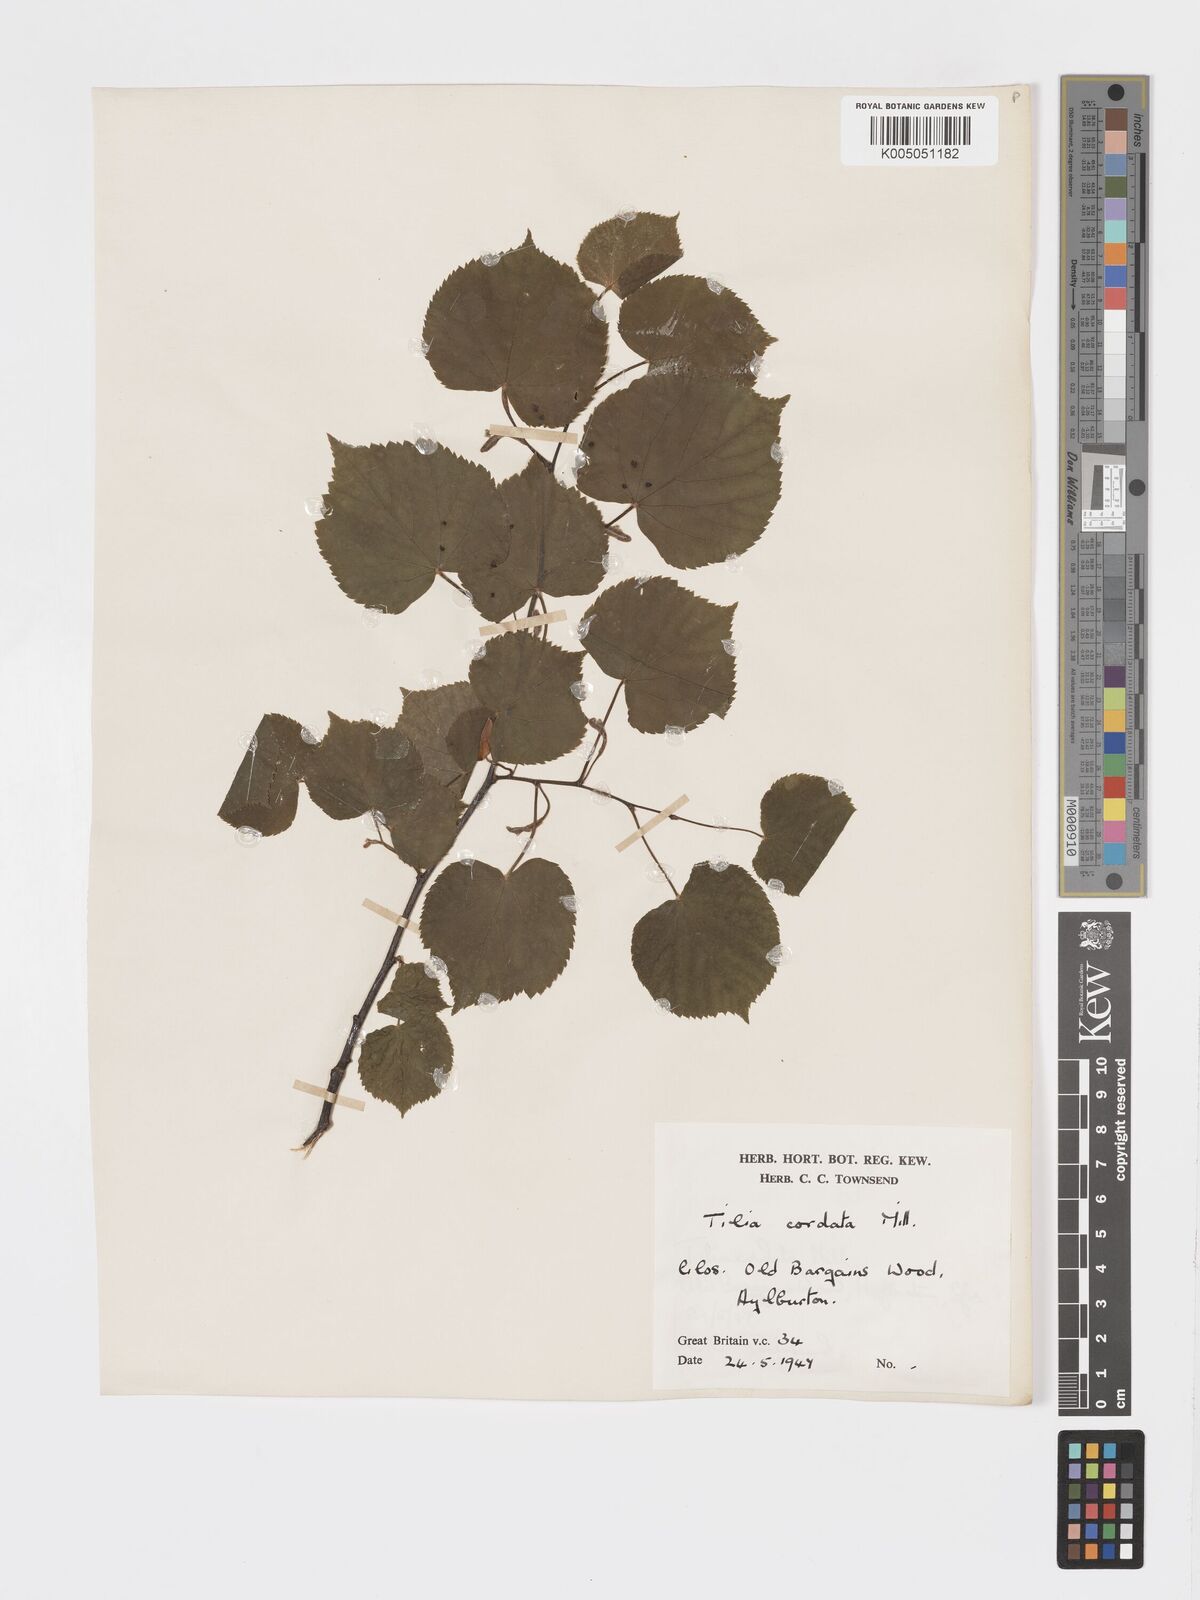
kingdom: Plantae
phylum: Tracheophyta
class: Magnoliopsida
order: Malvales
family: Malvaceae
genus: Tilia
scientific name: Tilia cordata
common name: Small-leaved lime
